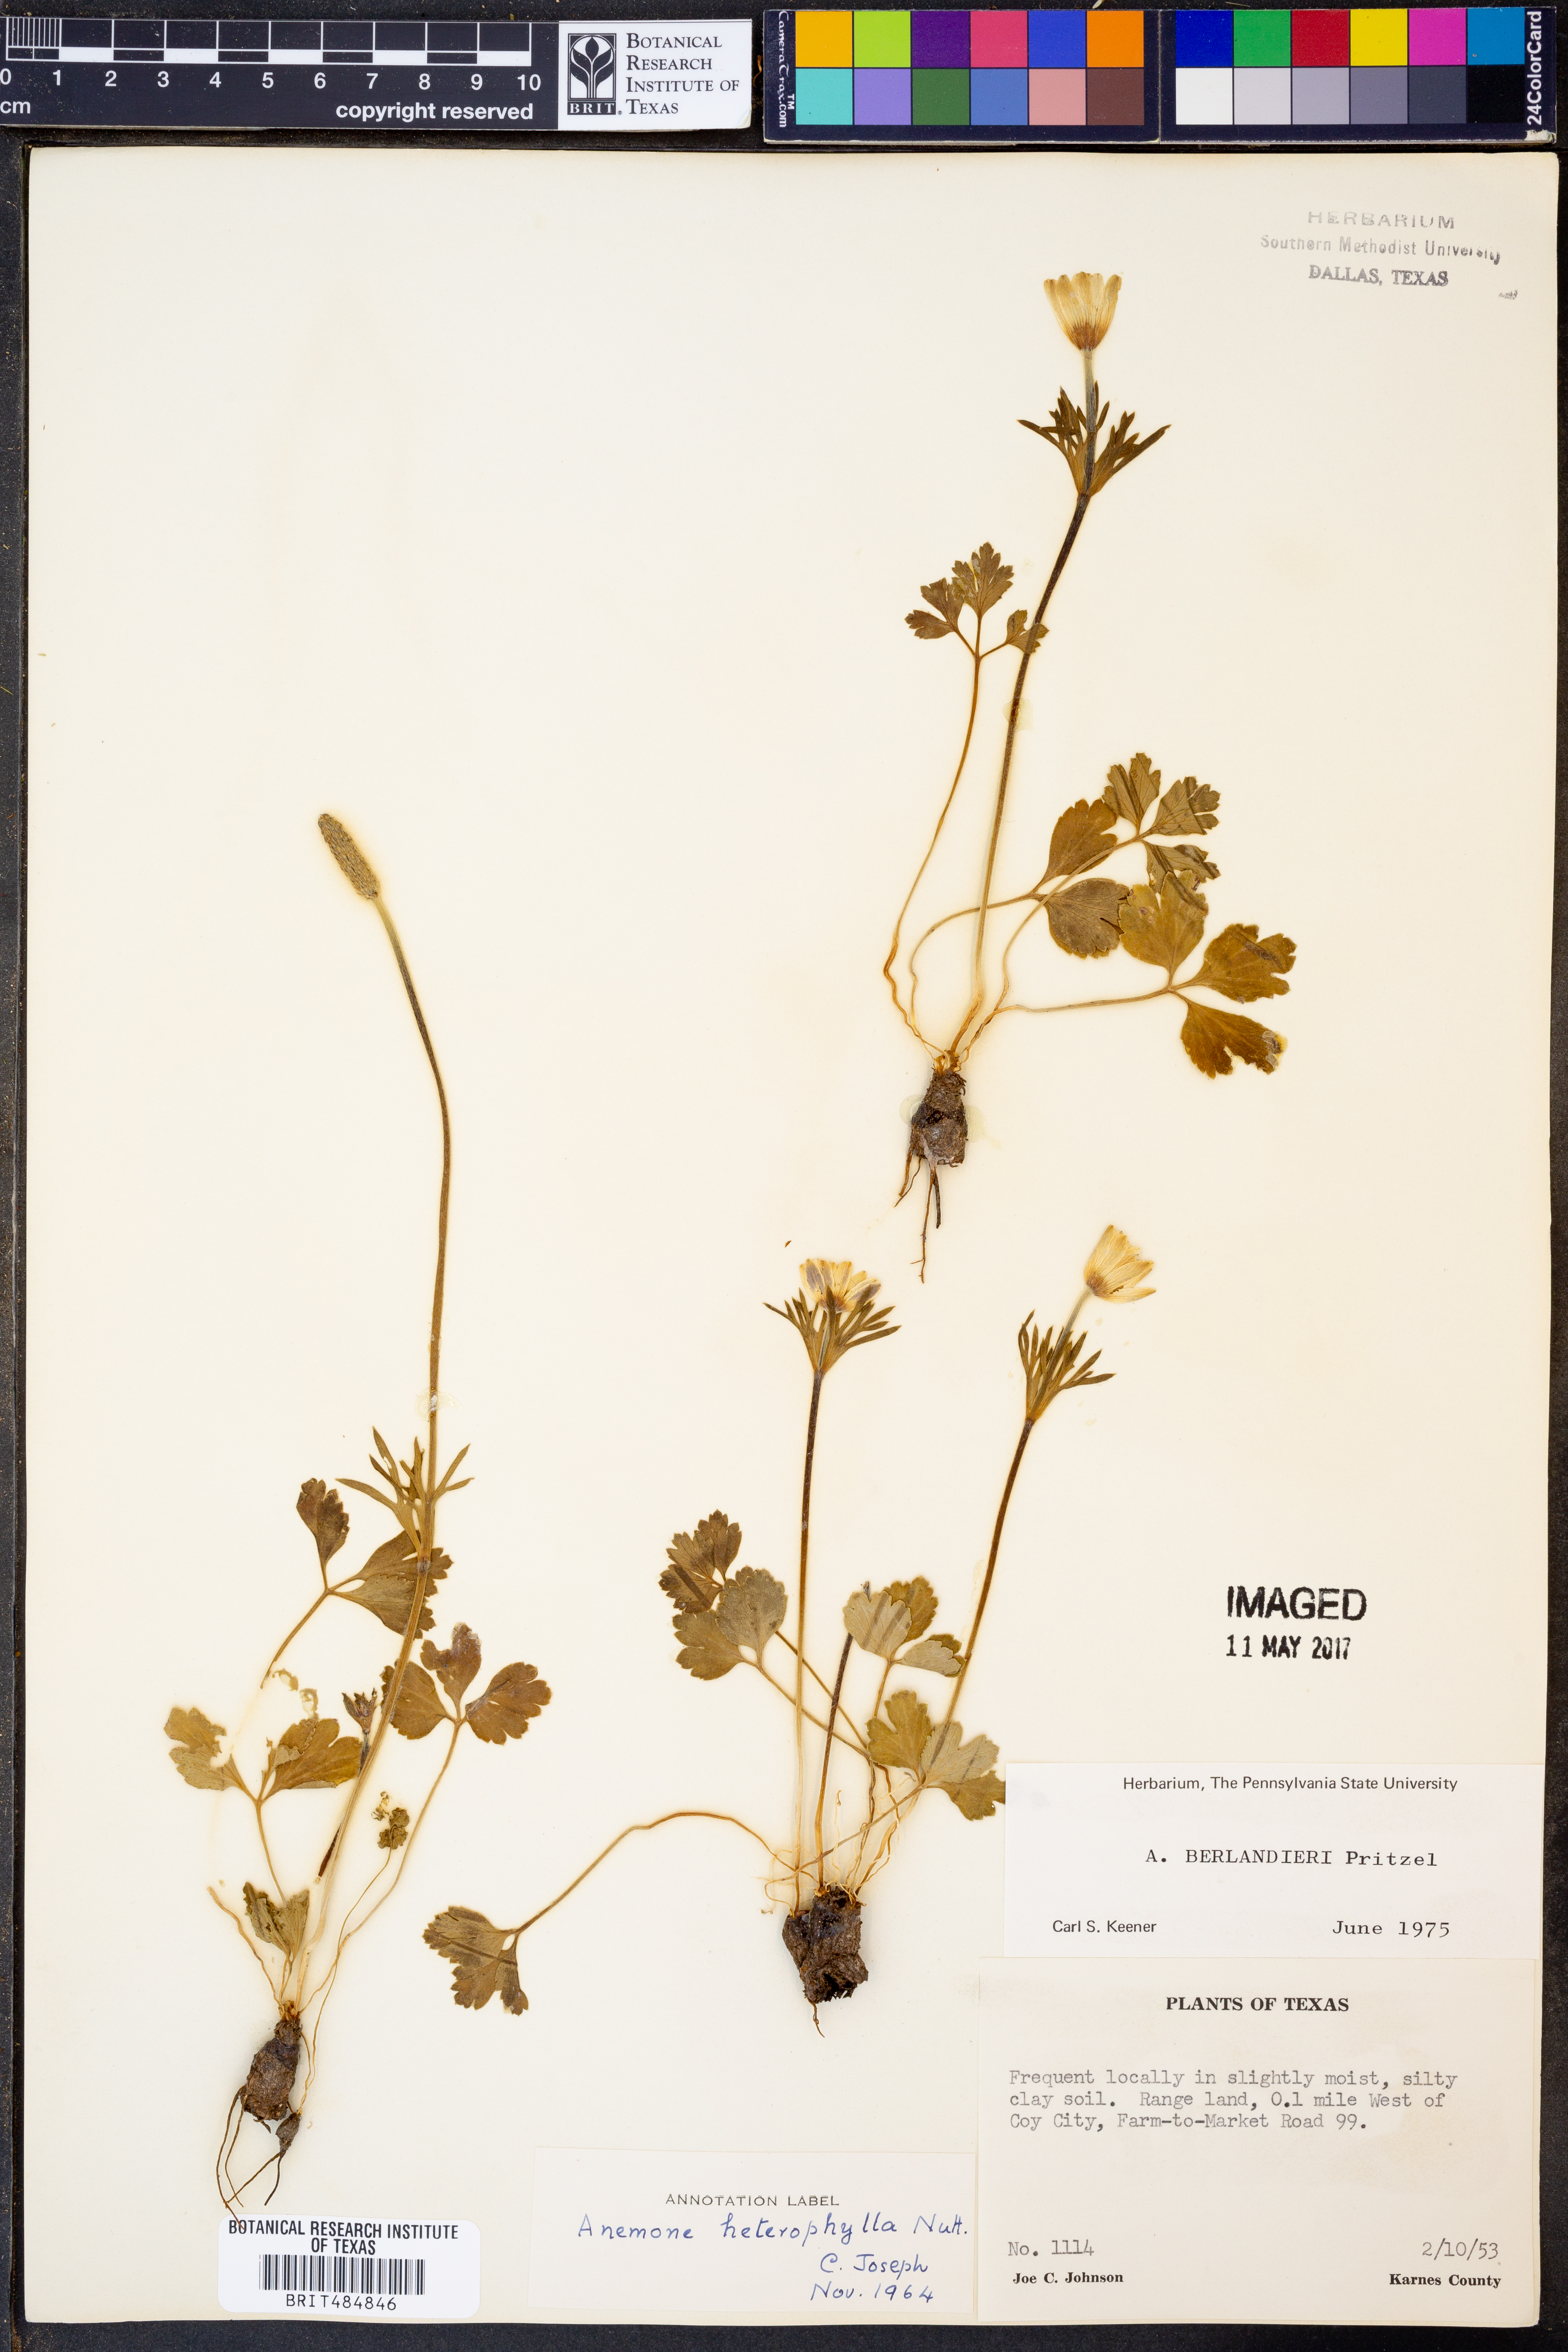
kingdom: Plantae
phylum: Tracheophyta
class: Magnoliopsida
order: Ranunculales
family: Ranunculaceae
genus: Anemone
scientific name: Anemone berlandieri
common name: Ten-petal anemone
